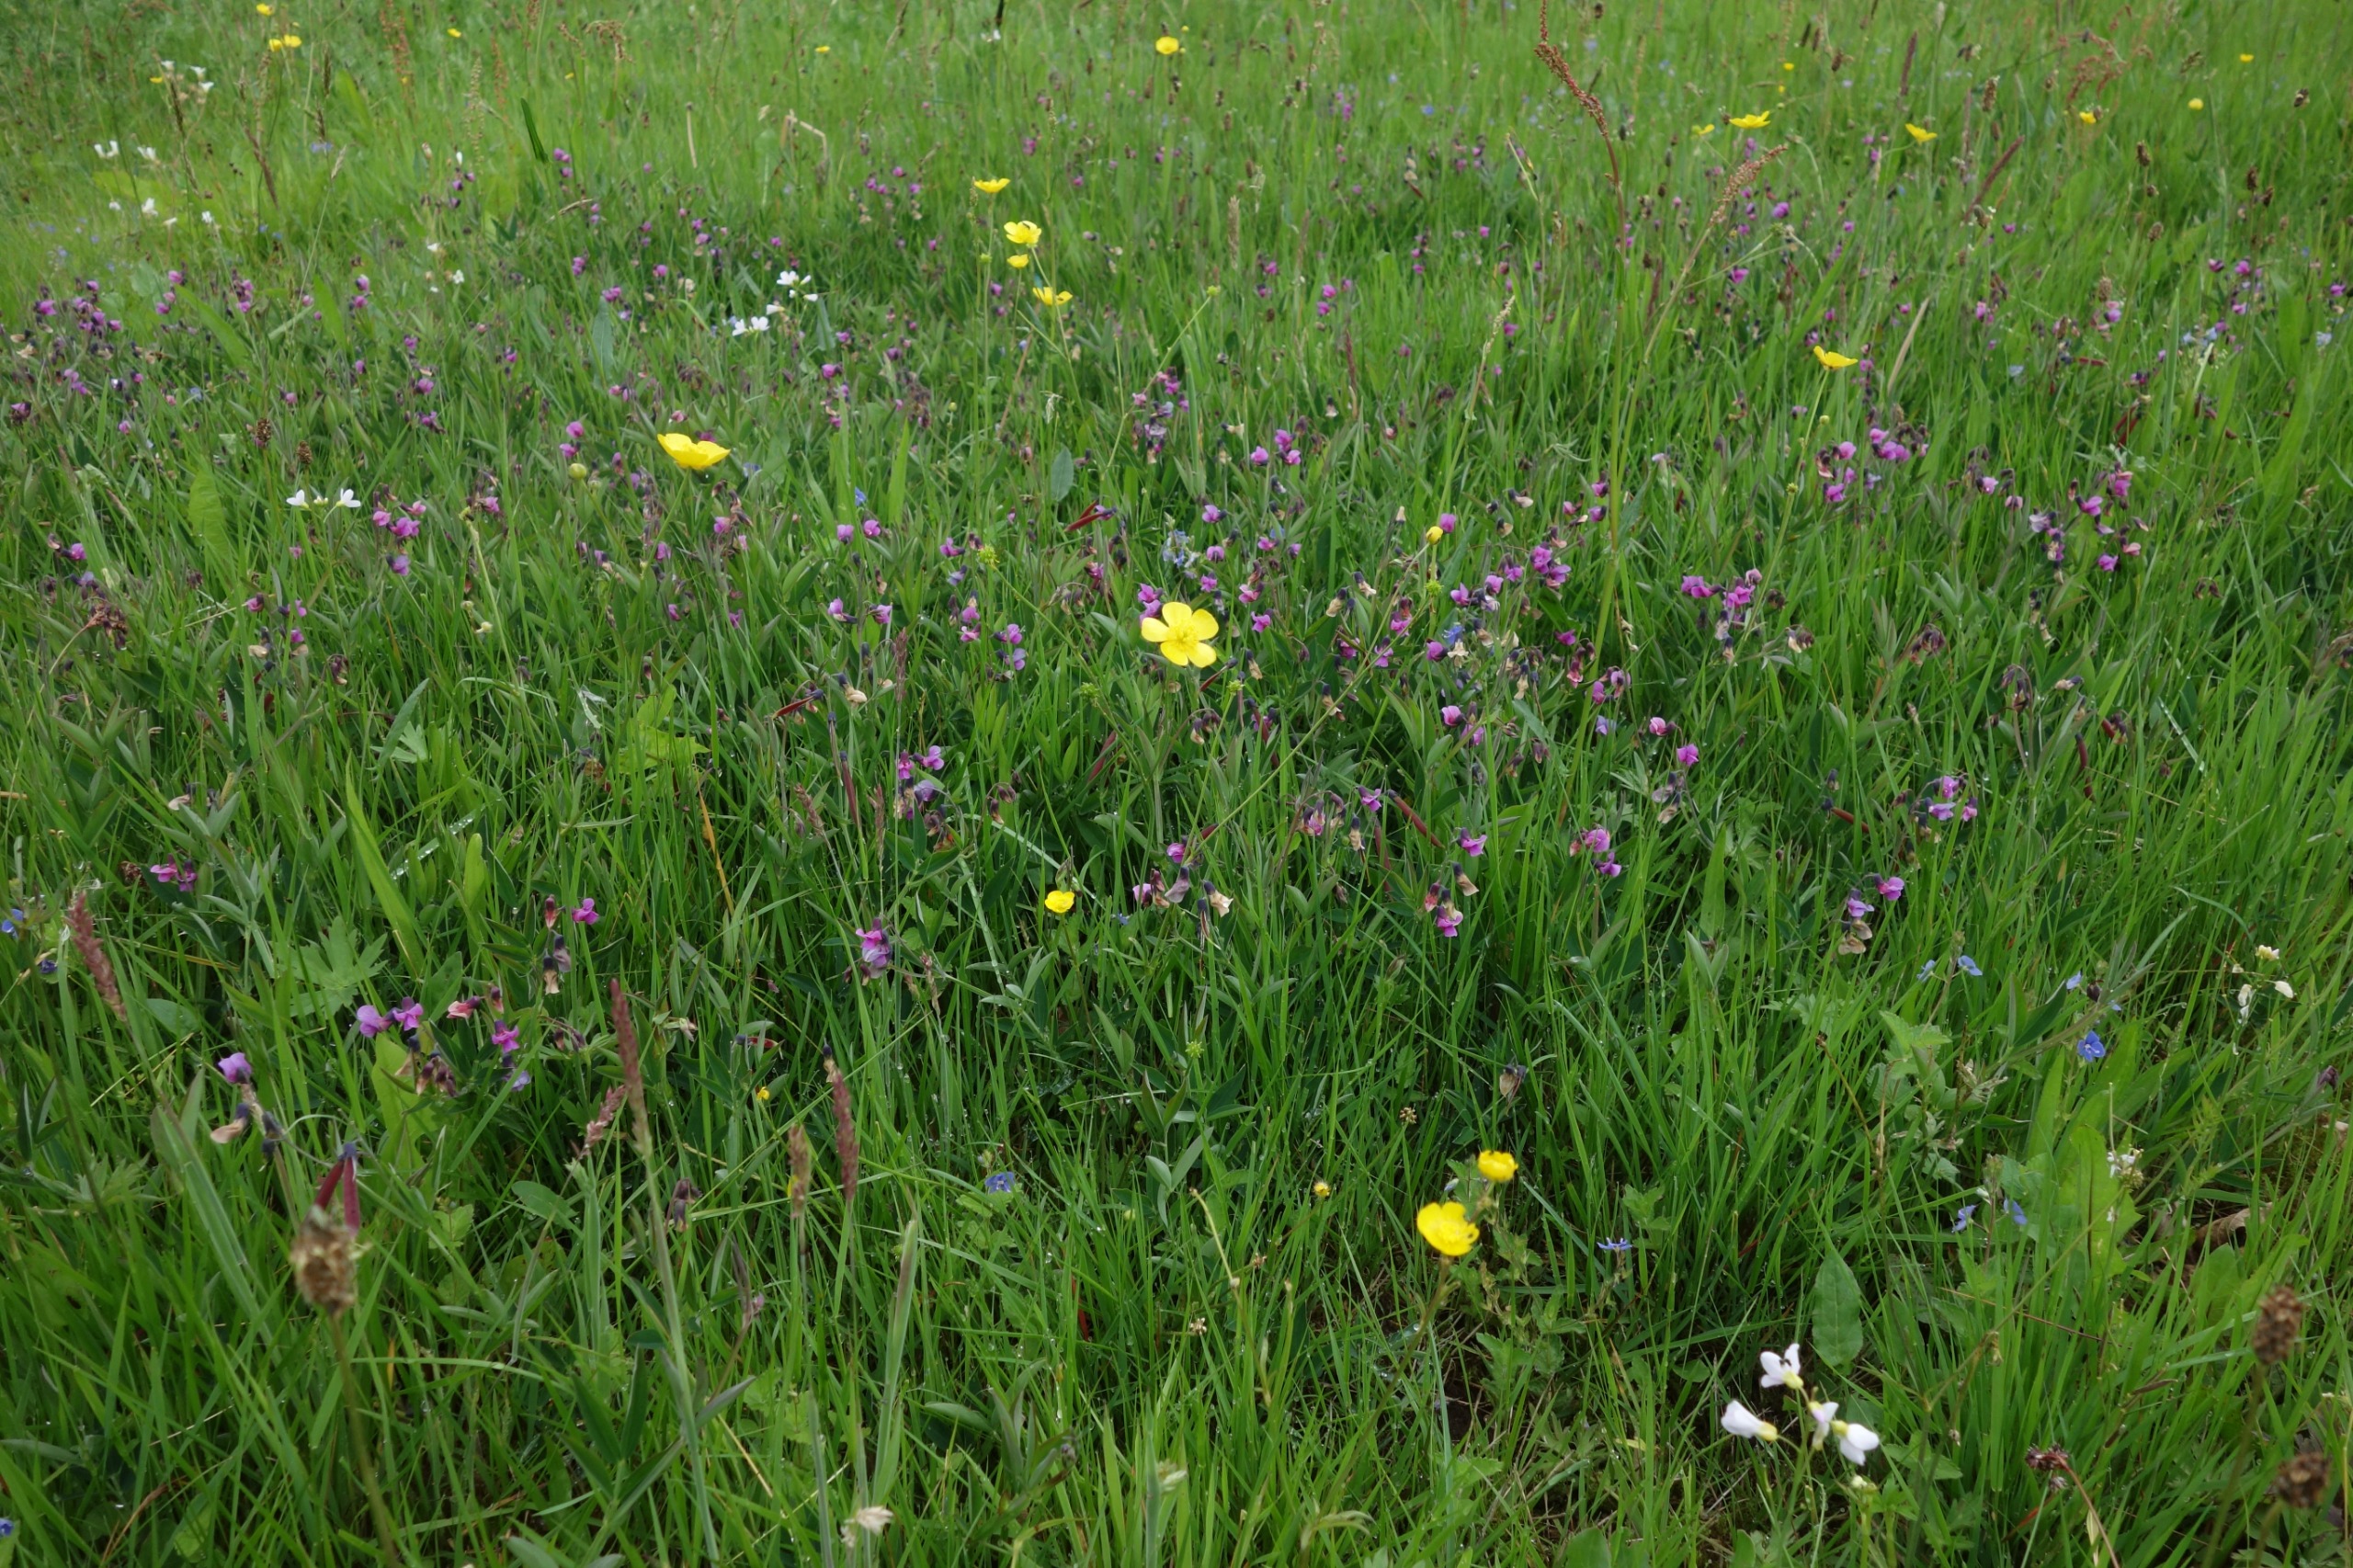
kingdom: Plantae
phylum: Tracheophyta
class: Magnoliopsida
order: Fabales
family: Fabaceae
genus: Lathyrus
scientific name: Lathyrus linifolius
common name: Krat-fladbælg
